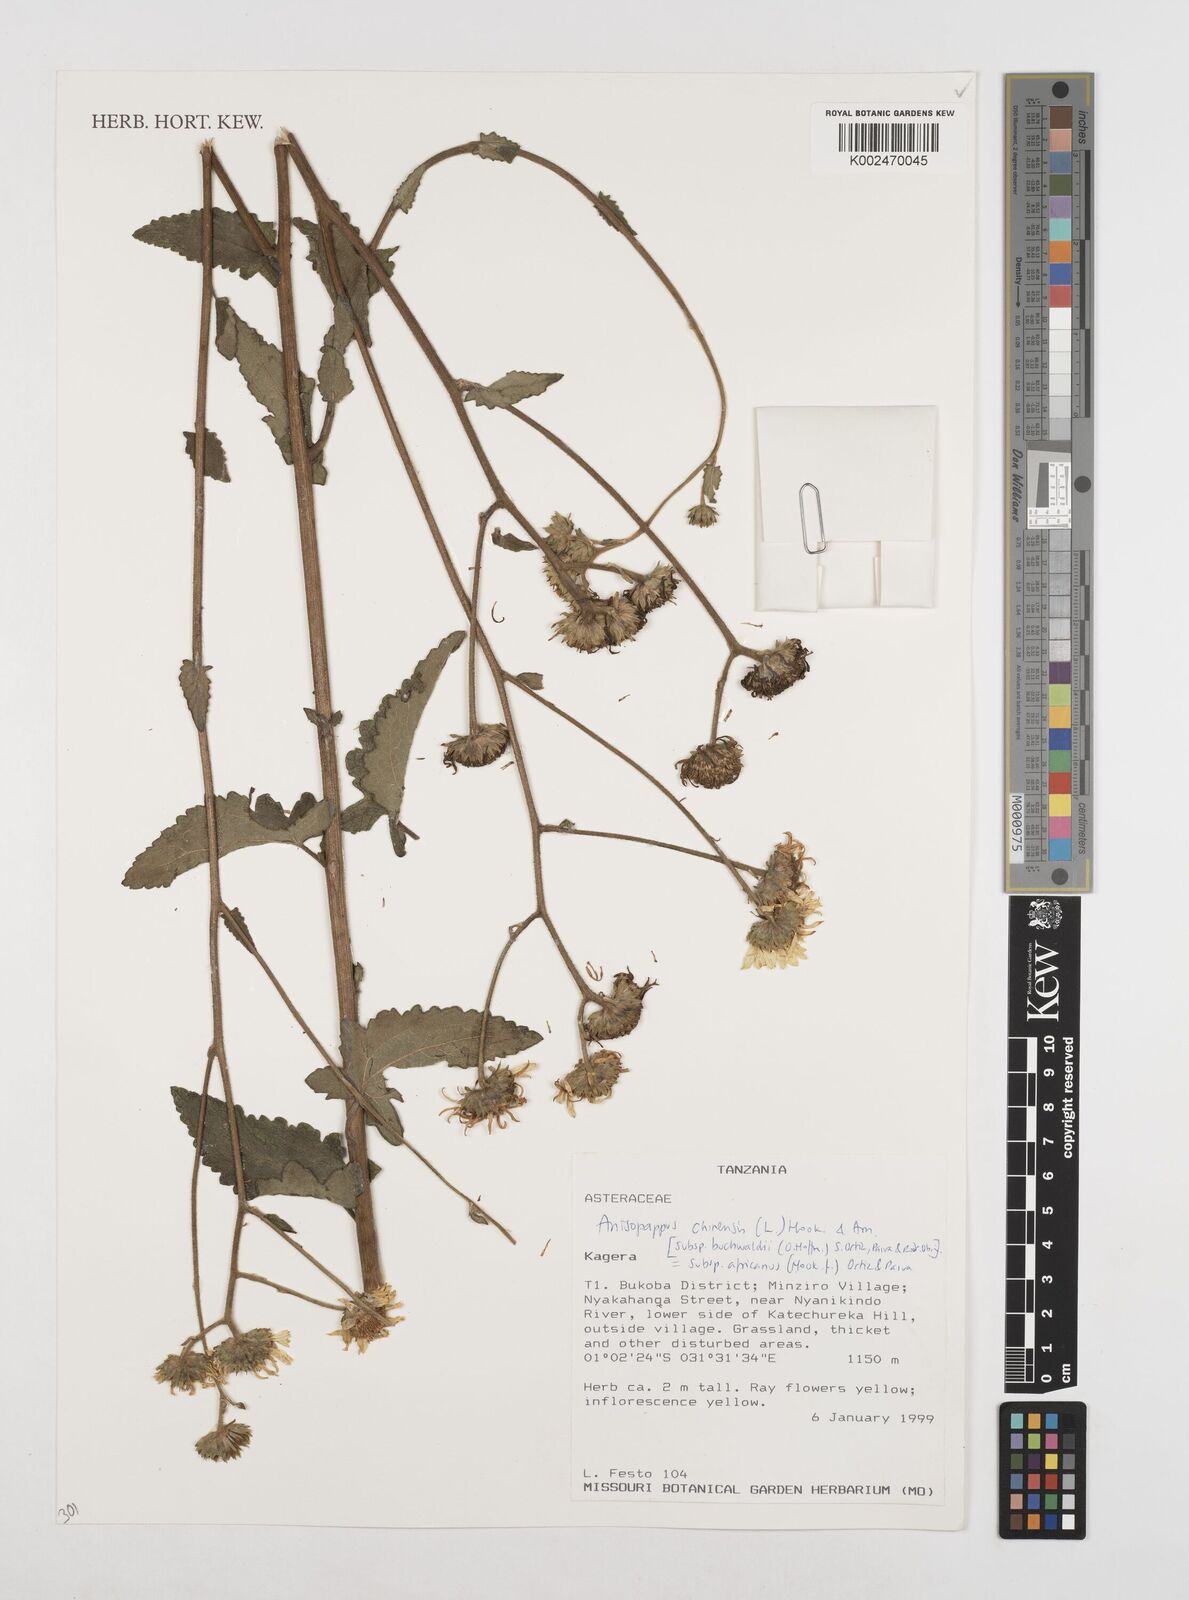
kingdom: Plantae
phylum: Tracheophyta
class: Magnoliopsida
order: Asterales
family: Asteraceae
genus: Anisopappus
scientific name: Anisopappus africanus
